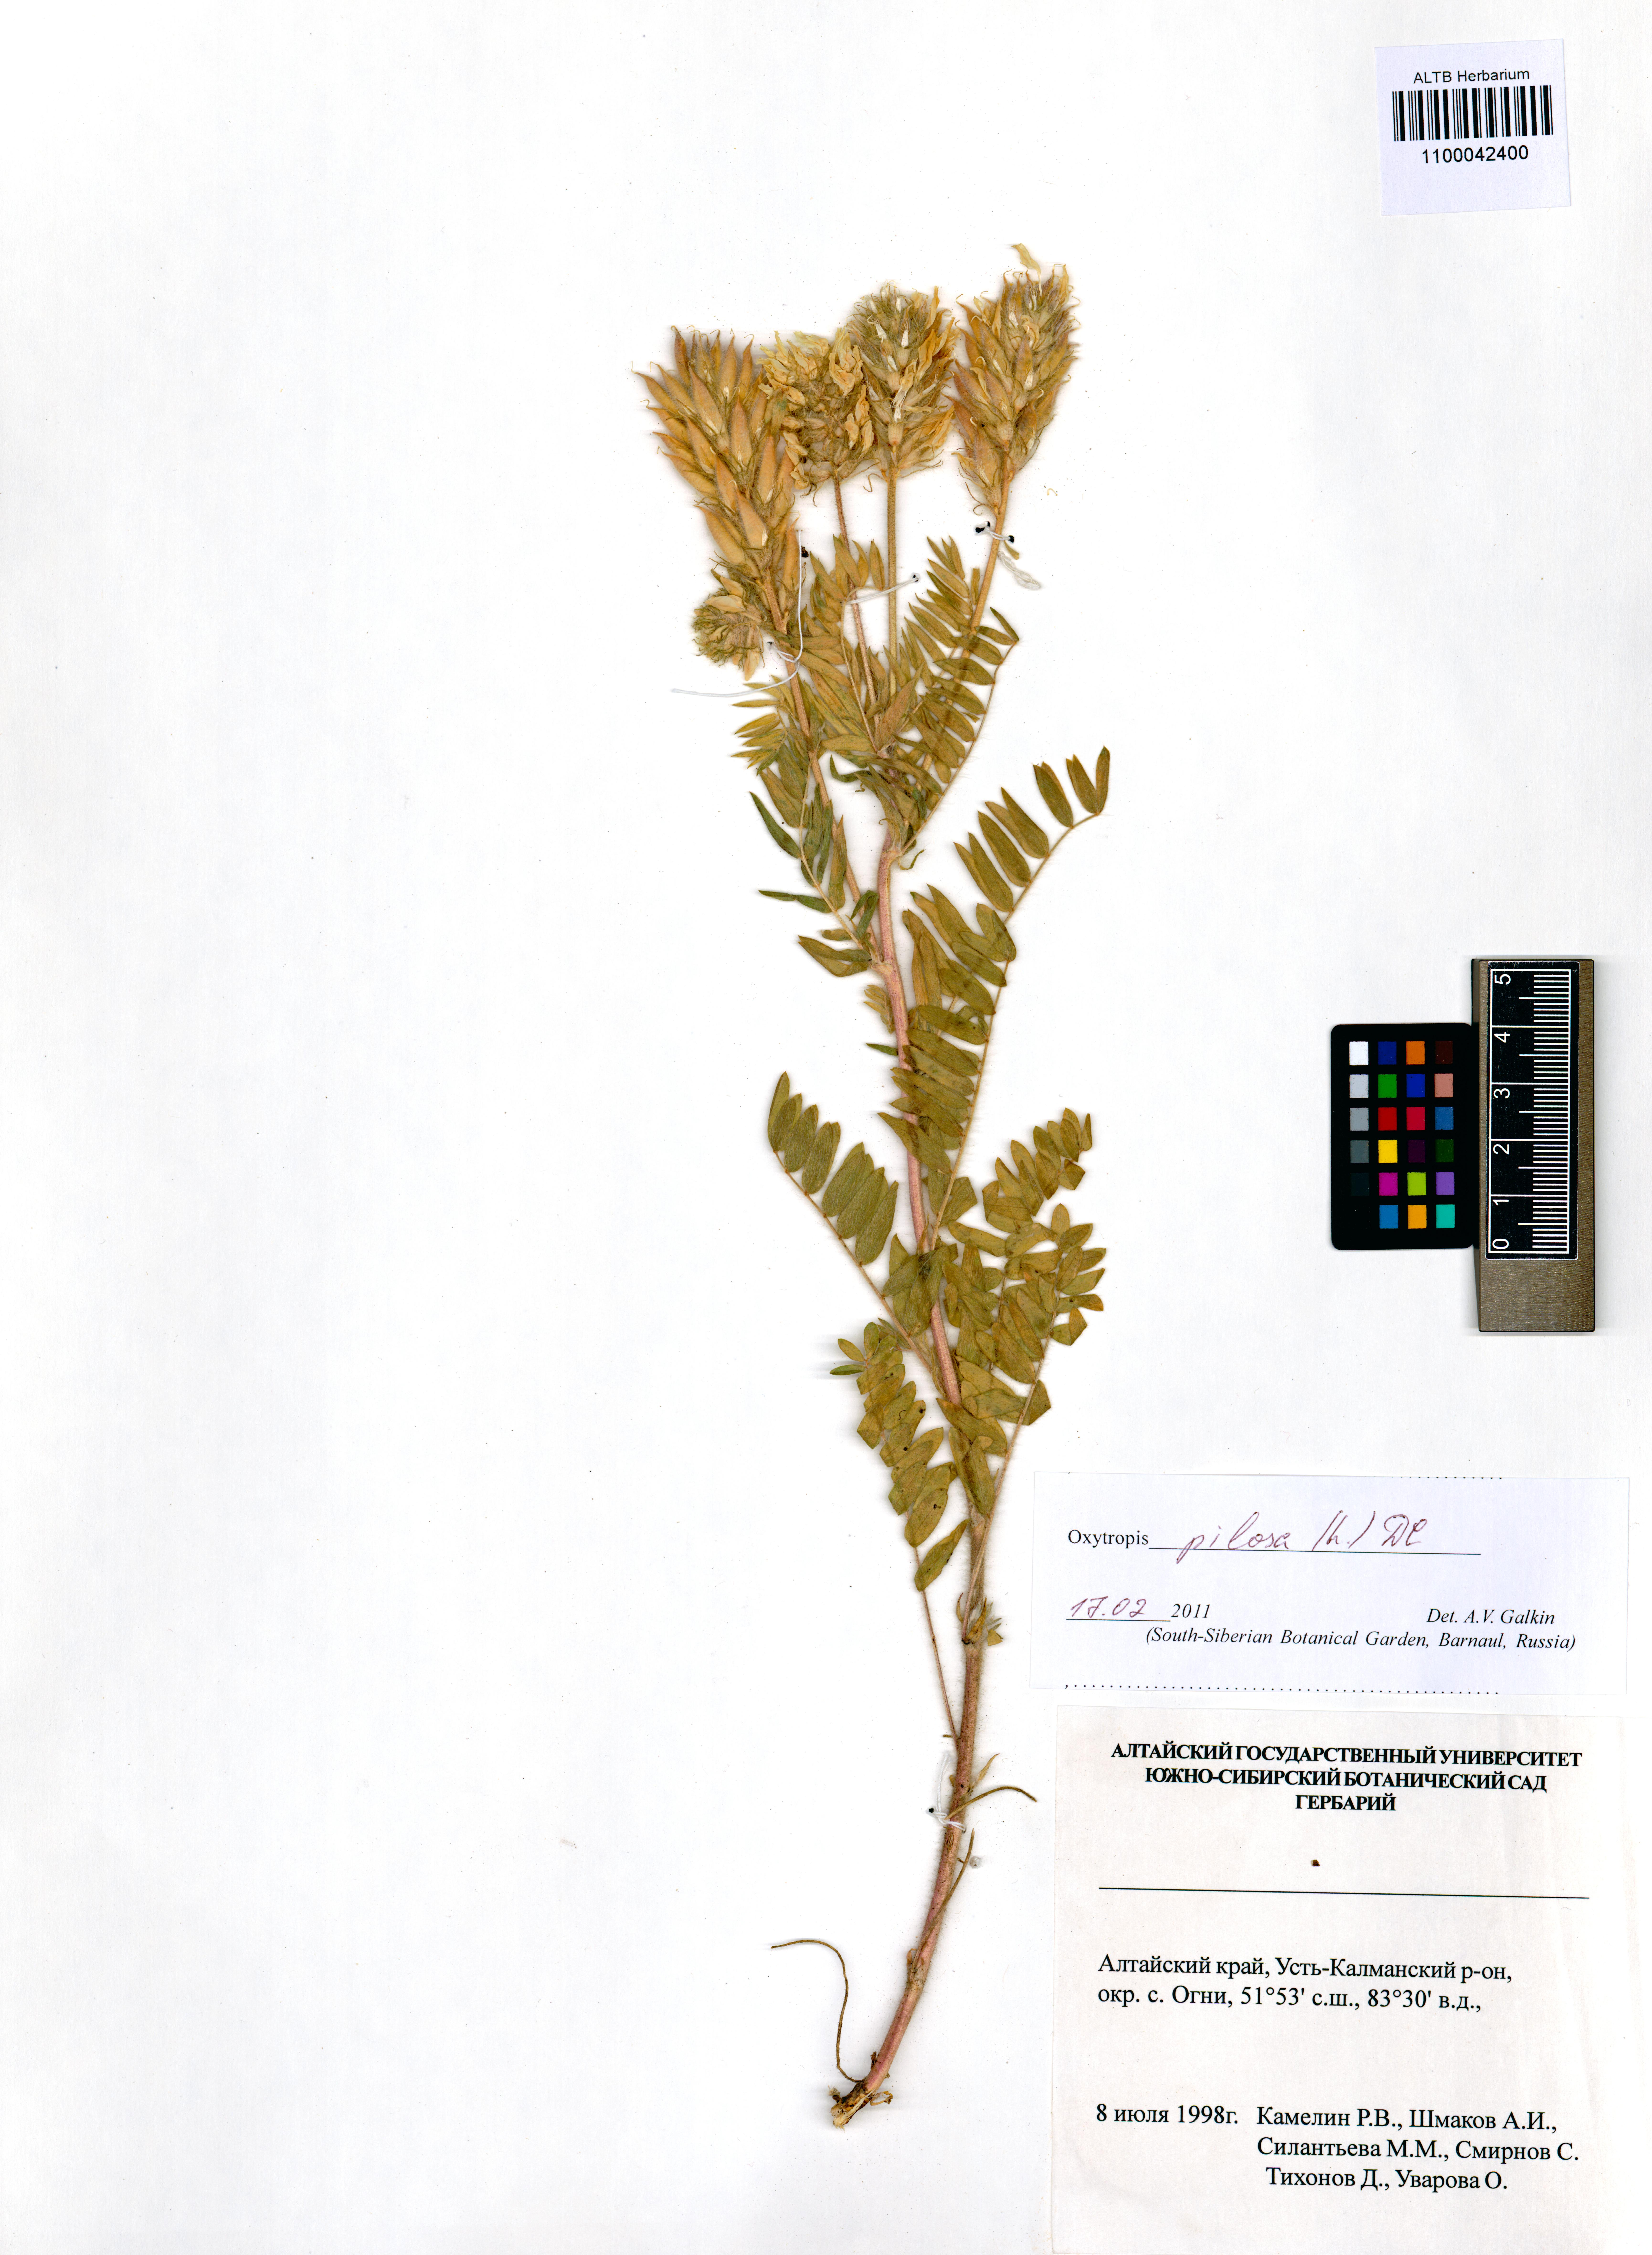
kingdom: Plantae
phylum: Tracheophyta
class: Magnoliopsida
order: Fabales
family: Fabaceae
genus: Oxytropis
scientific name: Oxytropis pilosa
